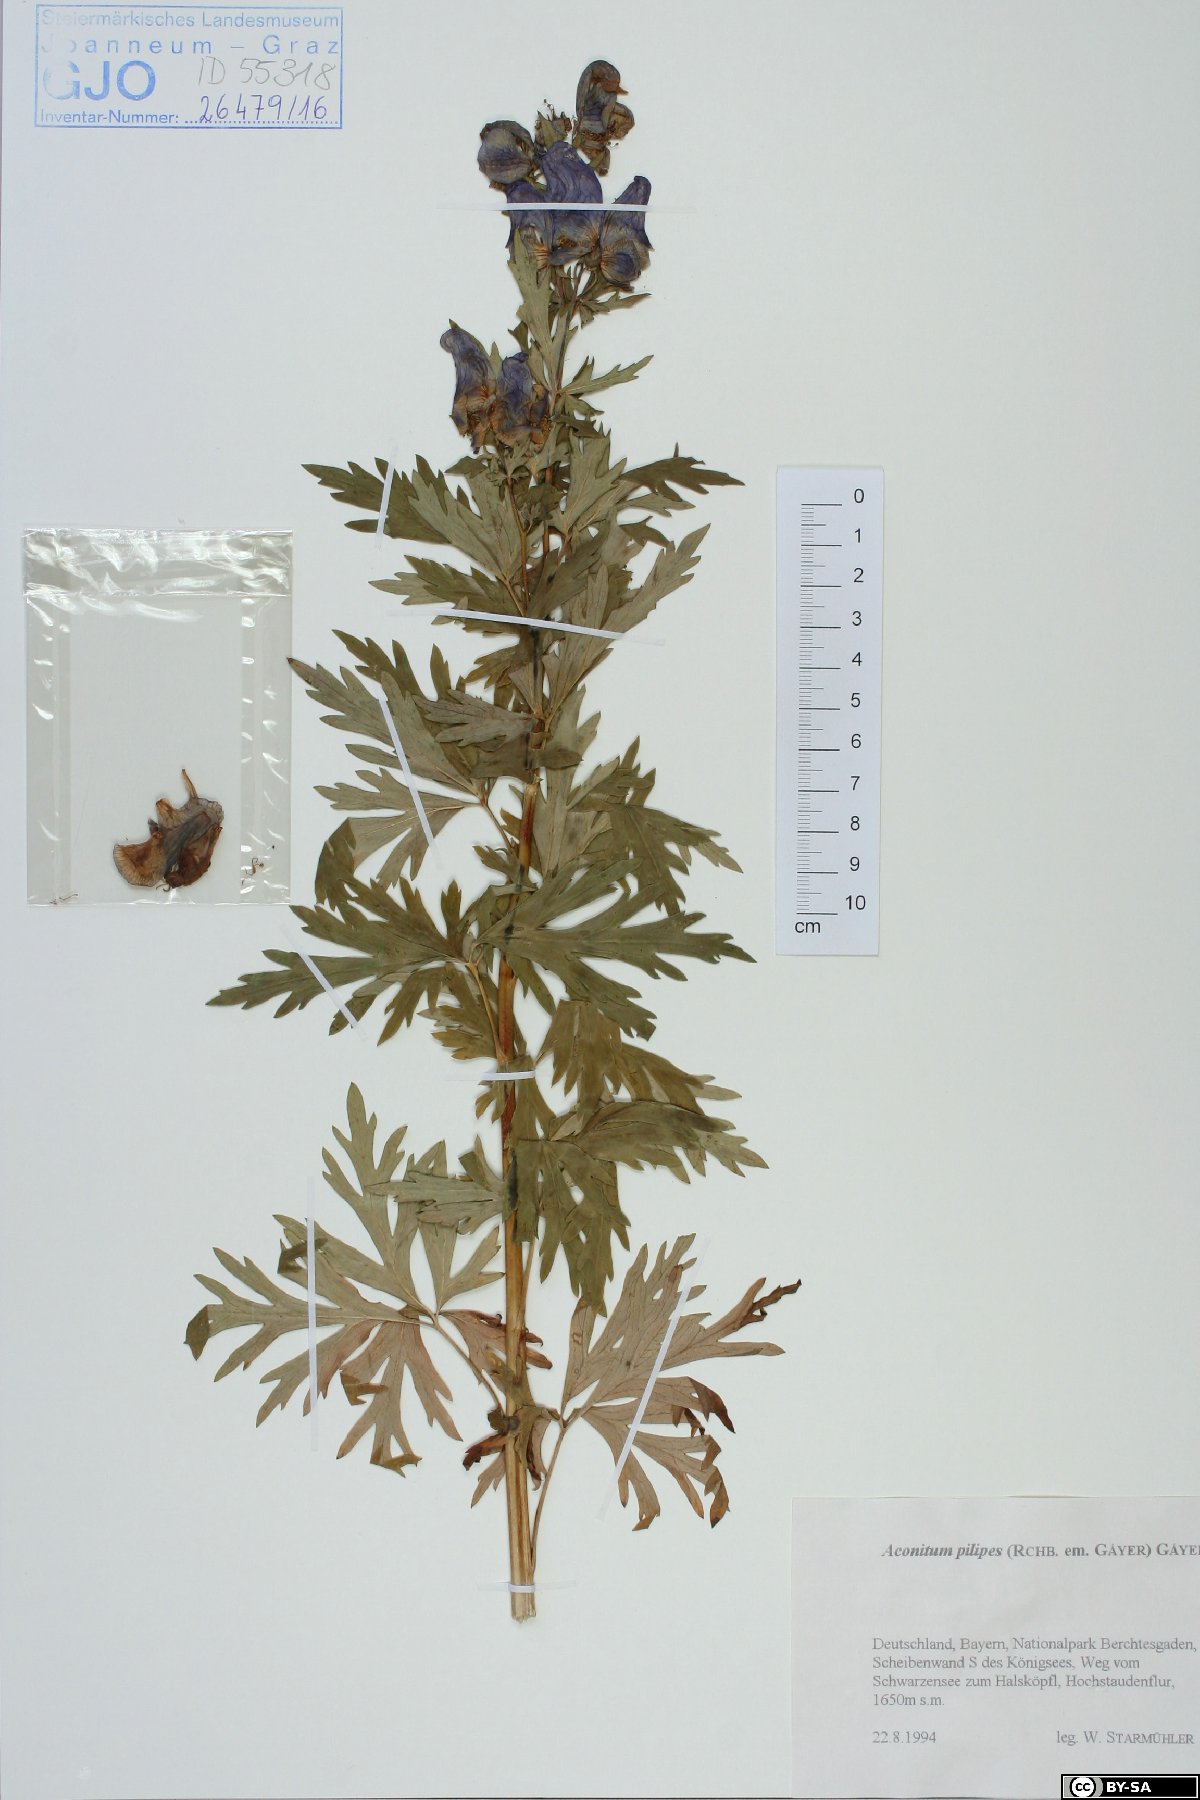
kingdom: Plantae
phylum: Tracheophyta
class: Magnoliopsida
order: Ranunculales
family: Ranunculaceae
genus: Aconitum
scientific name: Aconitum pilipes
